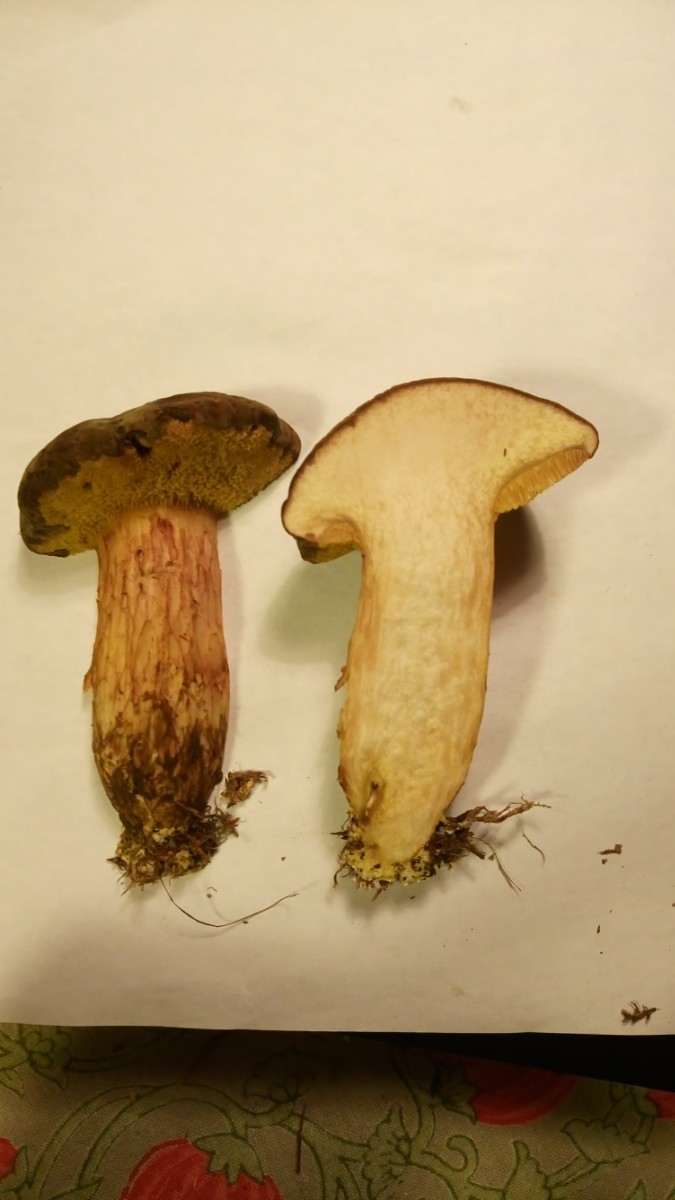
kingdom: Fungi
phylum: Basidiomycota
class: Agaricomycetes
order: Boletales
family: Boletaceae
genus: Xerocomus
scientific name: Xerocomus ferrugineus
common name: vaskeskinds-rørhat
